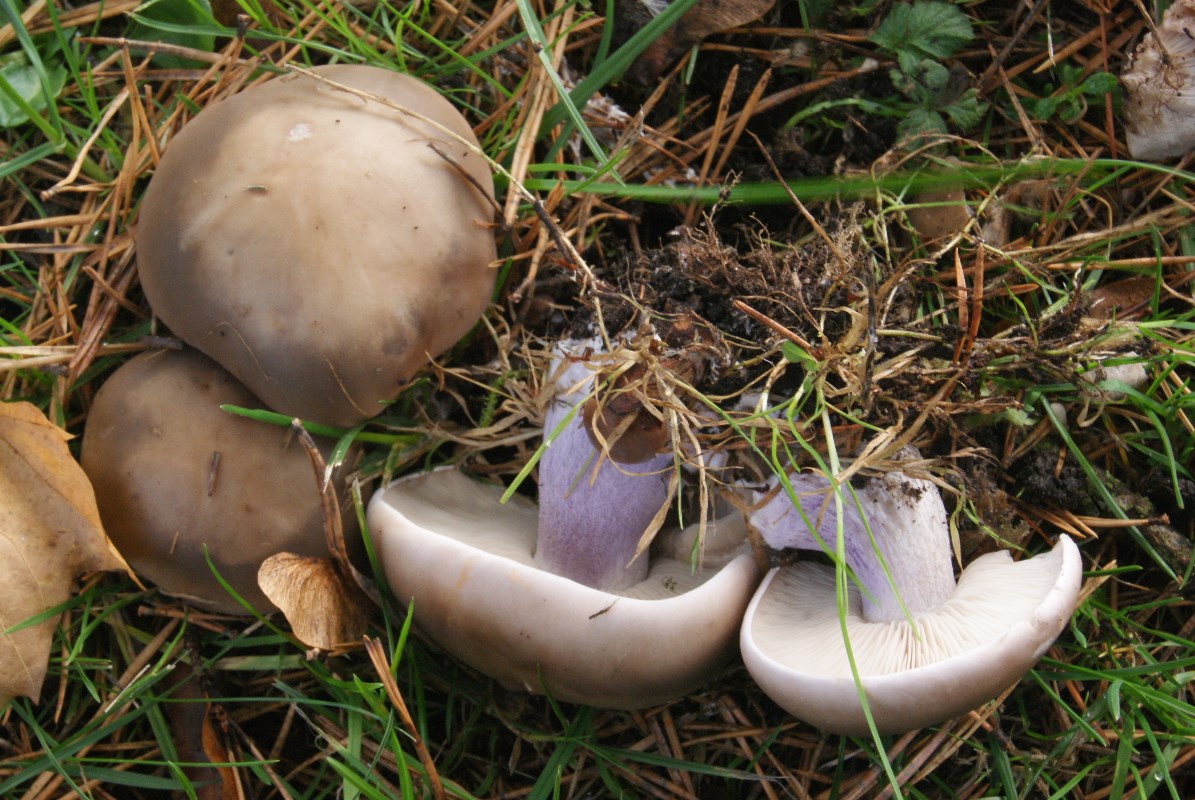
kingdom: Fungi
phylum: Basidiomycota
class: Agaricomycetes
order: Agaricales
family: Tricholomataceae
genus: Lepista
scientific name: Lepista personata
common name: bleg hekseringshat
